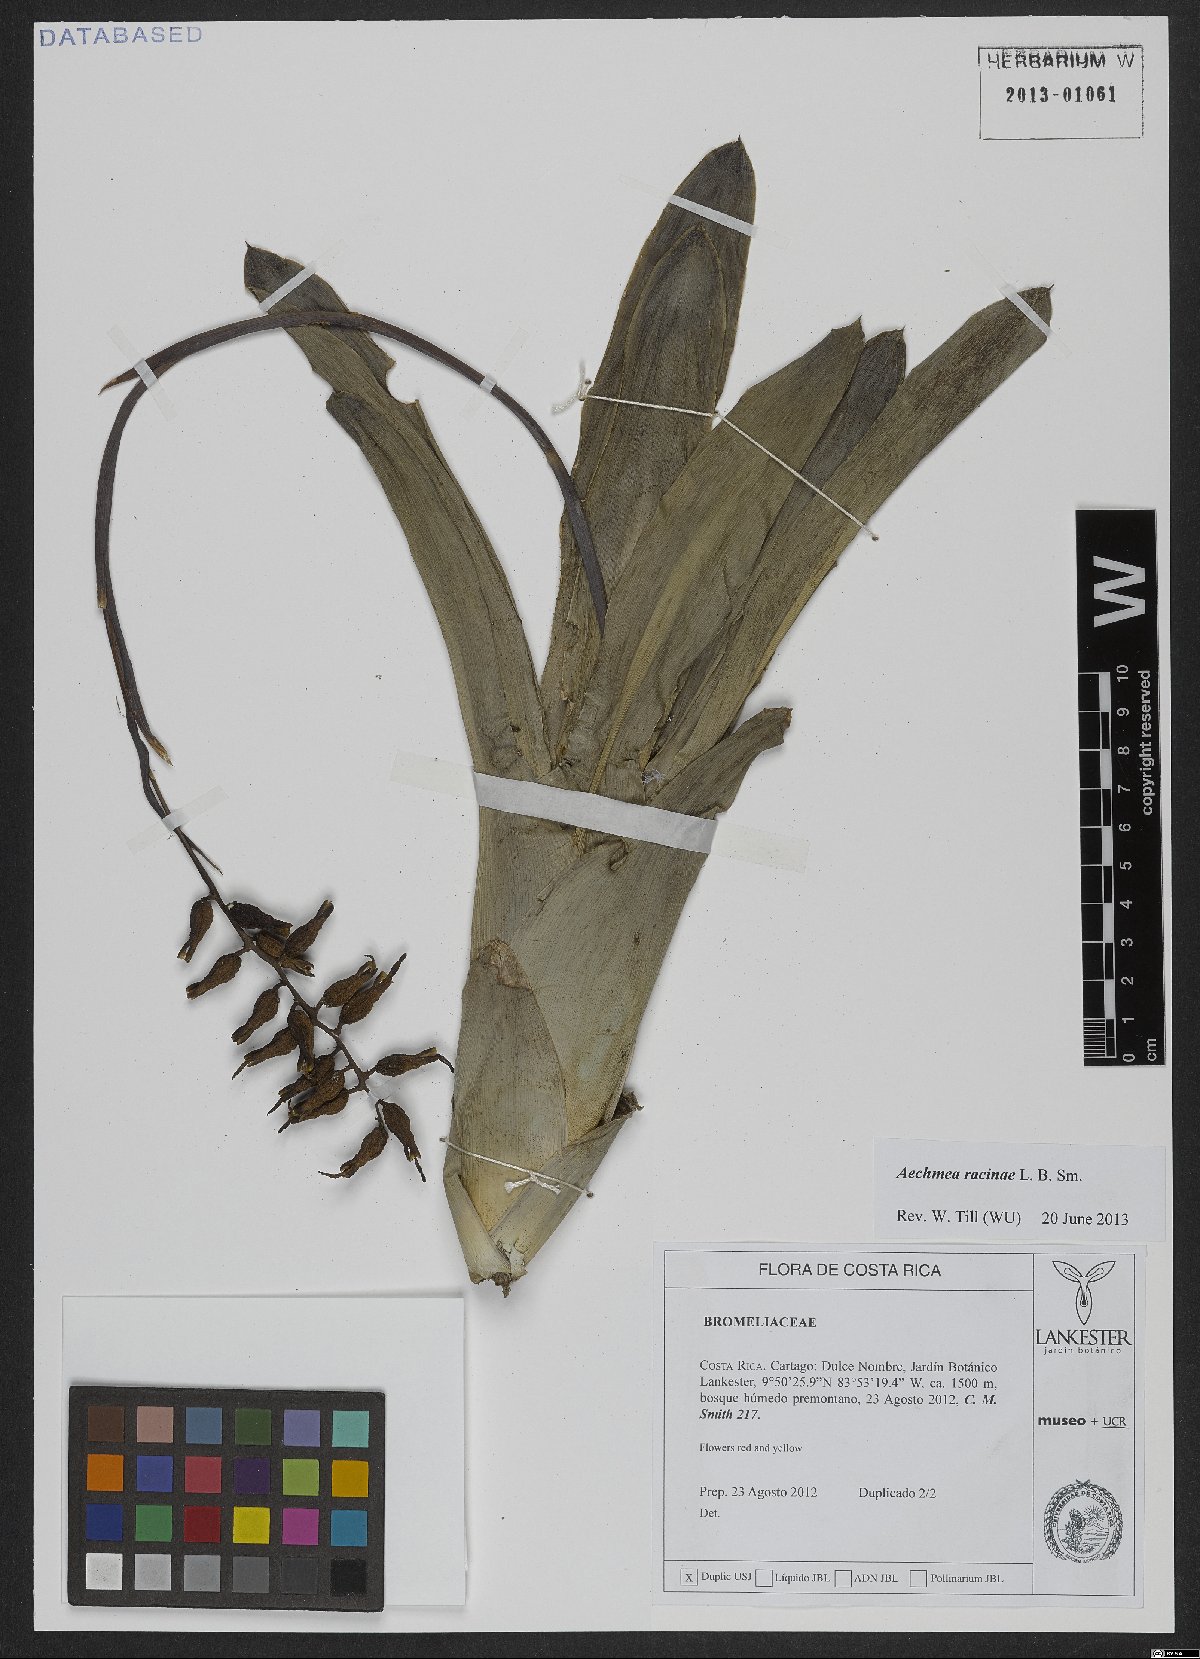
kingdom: Plantae
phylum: Tracheophyta
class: Liliopsida
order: Poales
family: Bromeliaceae
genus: Aechmea
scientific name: Aechmea racinae
